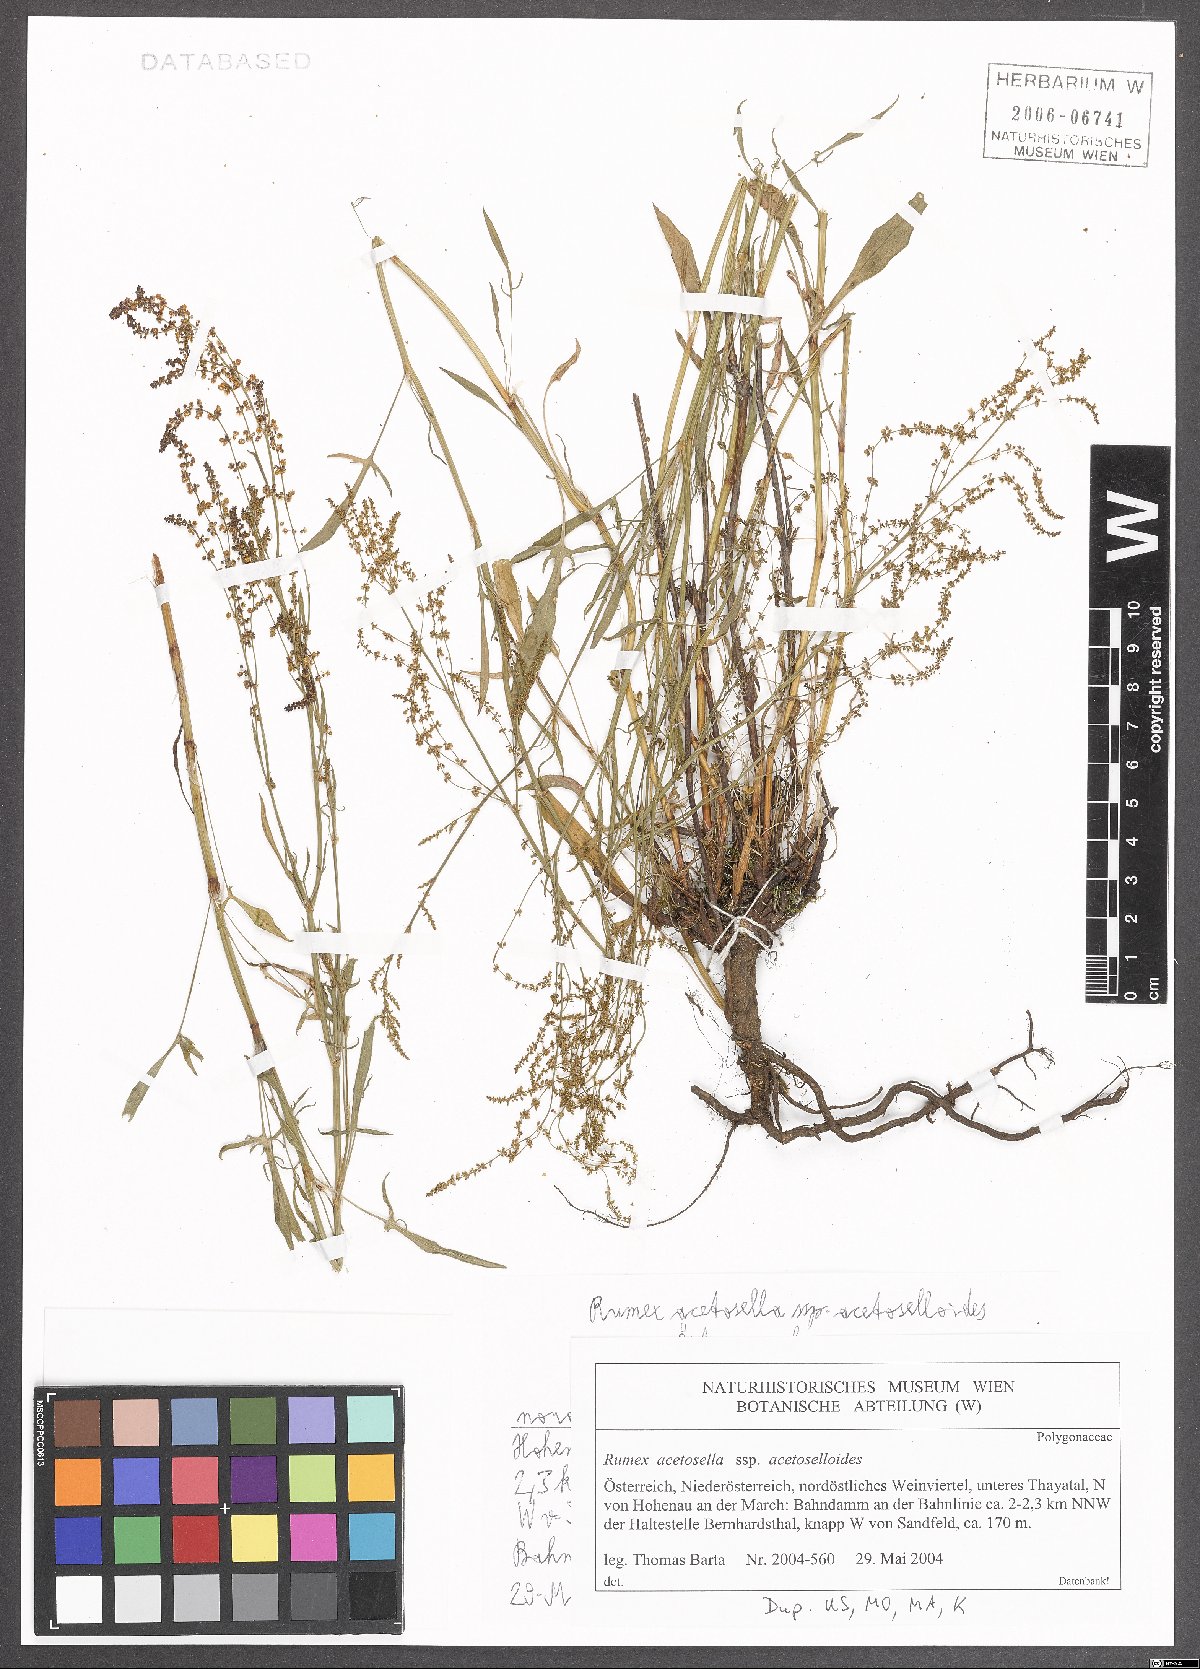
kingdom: Plantae
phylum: Tracheophyta
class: Magnoliopsida
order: Caryophyllales
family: Polygonaceae
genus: Rumex
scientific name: Rumex acetosella
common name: Common sheep sorrel
